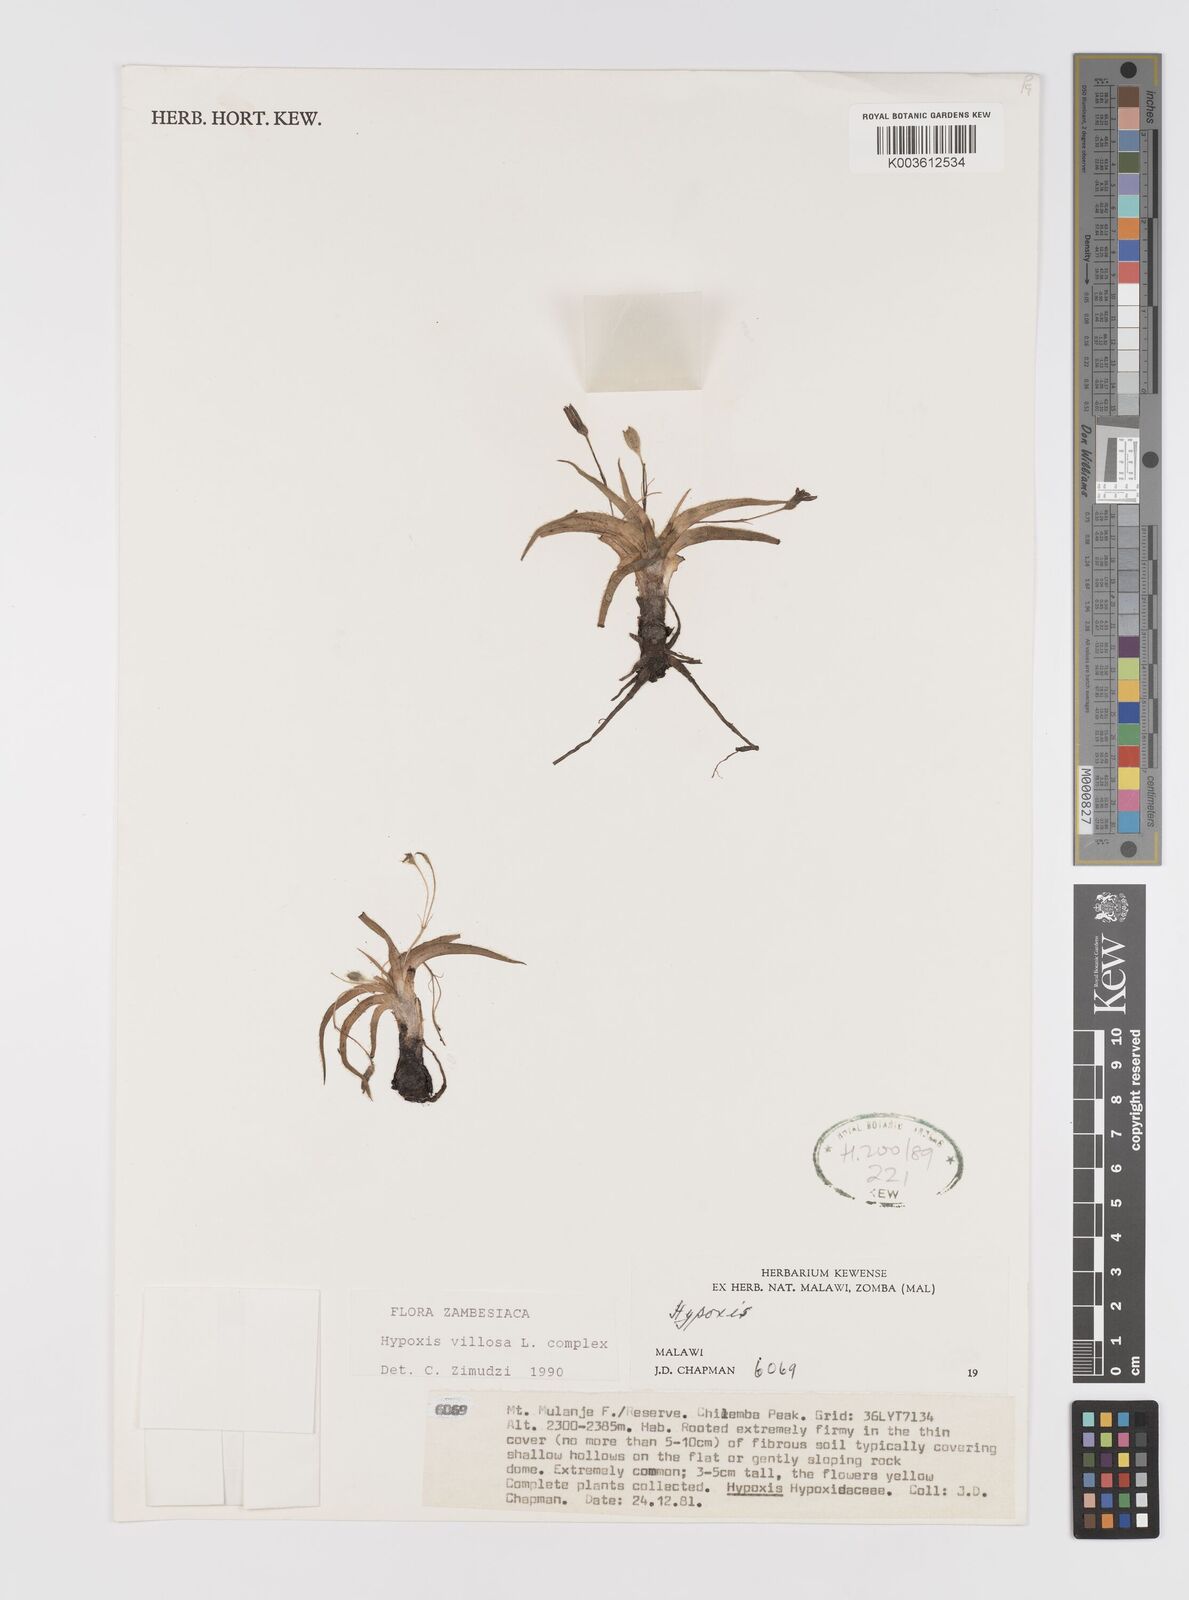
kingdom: Plantae
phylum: Tracheophyta
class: Liliopsida
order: Asparagales
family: Hypoxidaceae
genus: Hypoxis
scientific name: Hypoxis parvifolia
